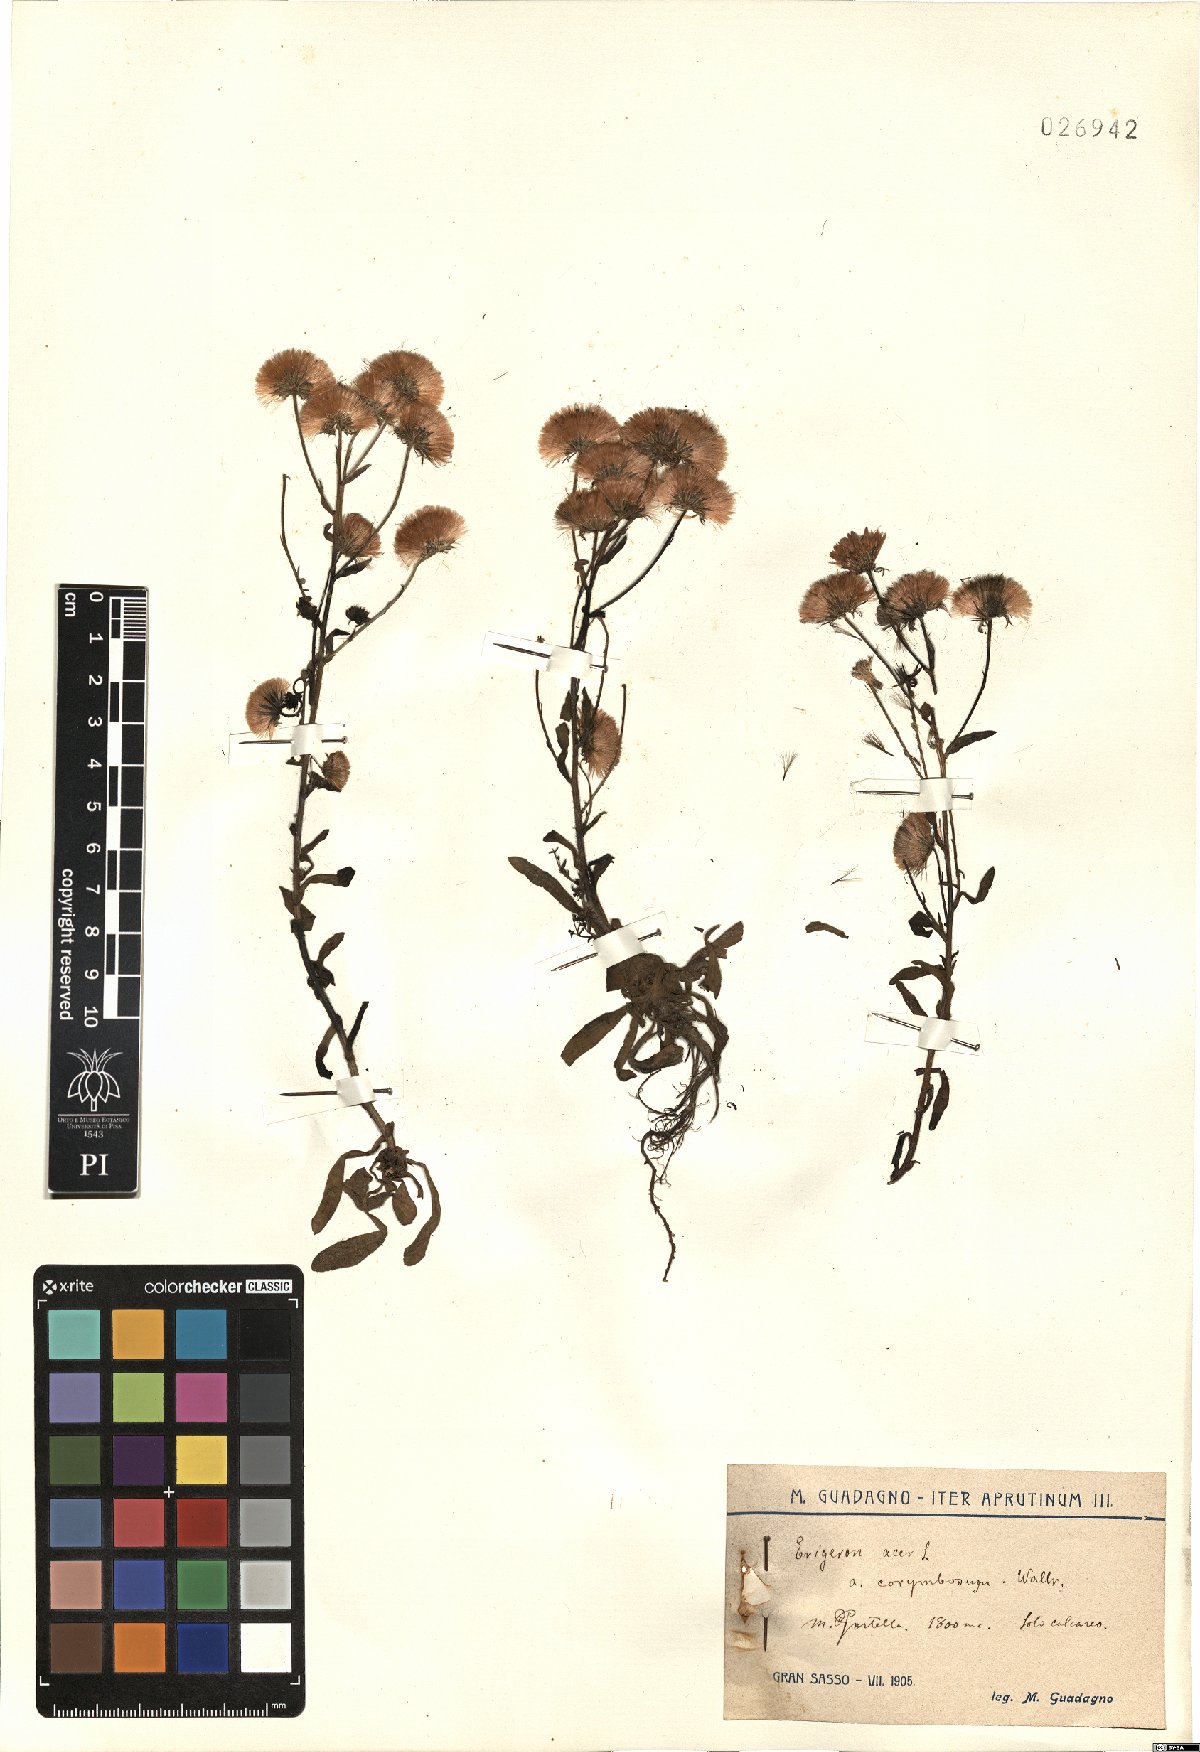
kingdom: Plantae
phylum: Tracheophyta
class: Magnoliopsida
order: Asterales
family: Asteraceae
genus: Erigeron
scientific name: Erigeron acer
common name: Blue fleabane
